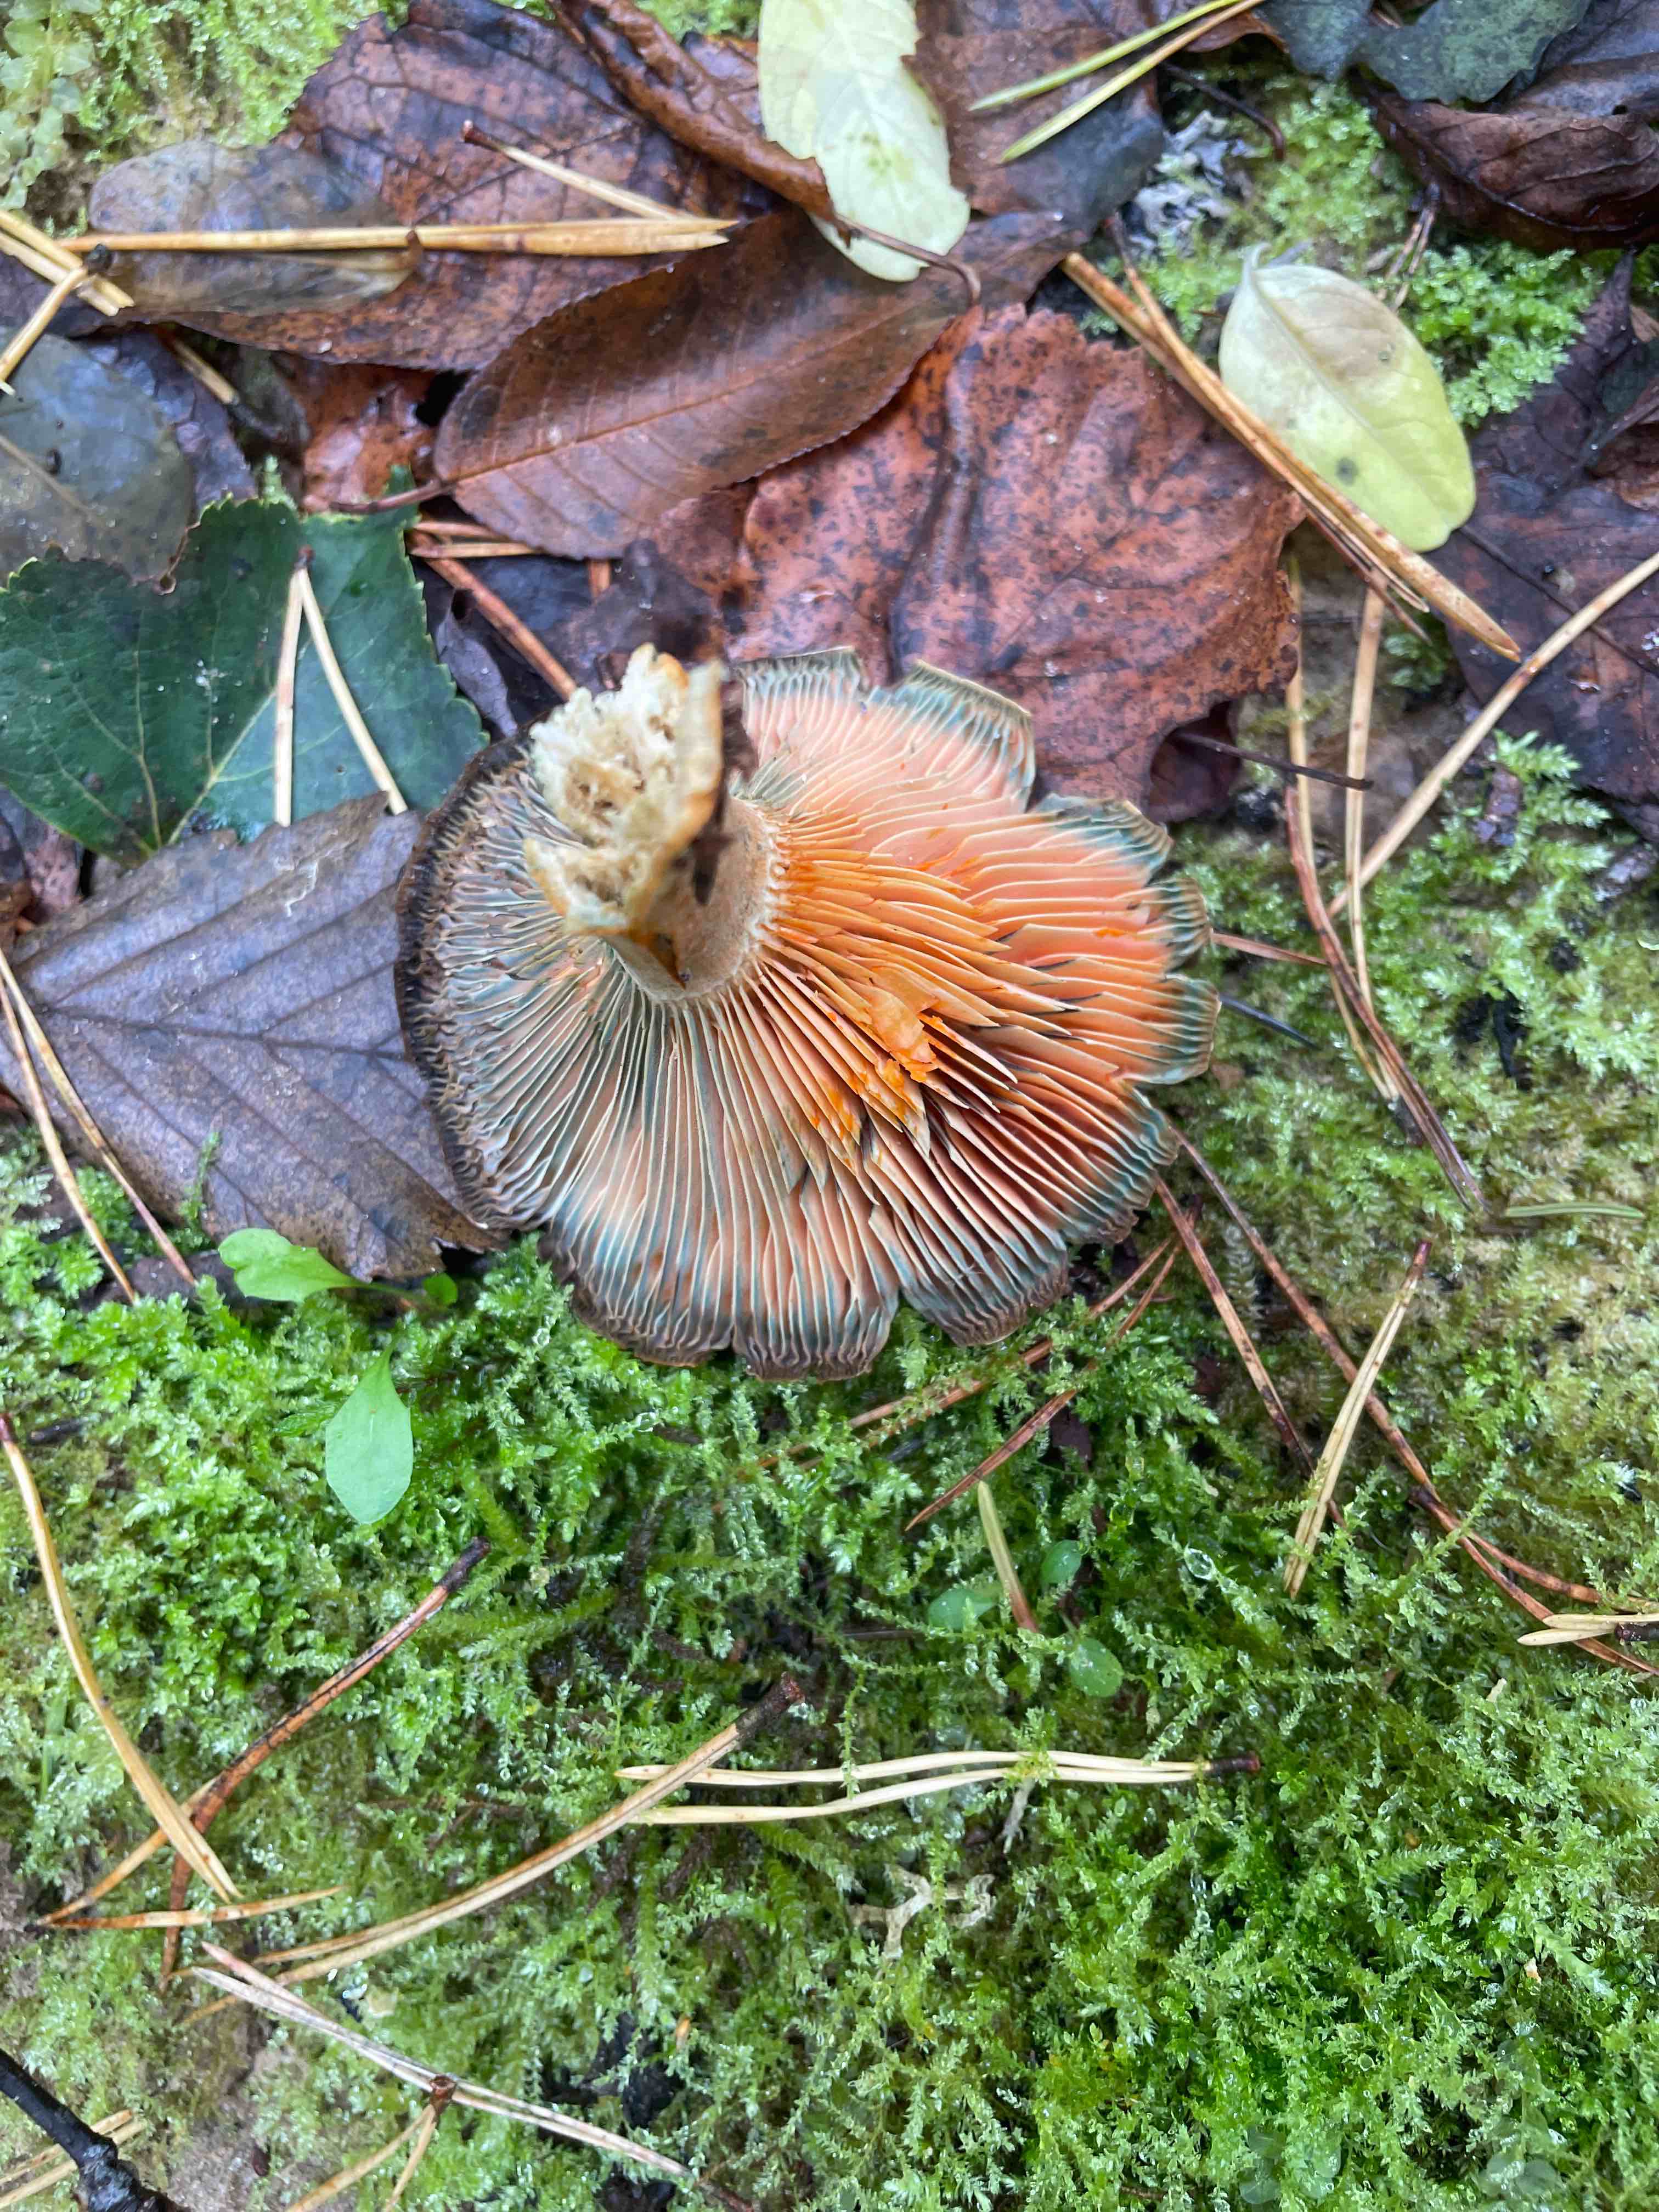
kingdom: Fungi
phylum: Basidiomycota
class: Agaricomycetes
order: Russulales
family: Russulaceae
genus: Lactarius
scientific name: Lactarius deterrimus
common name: gran-mælkehat
